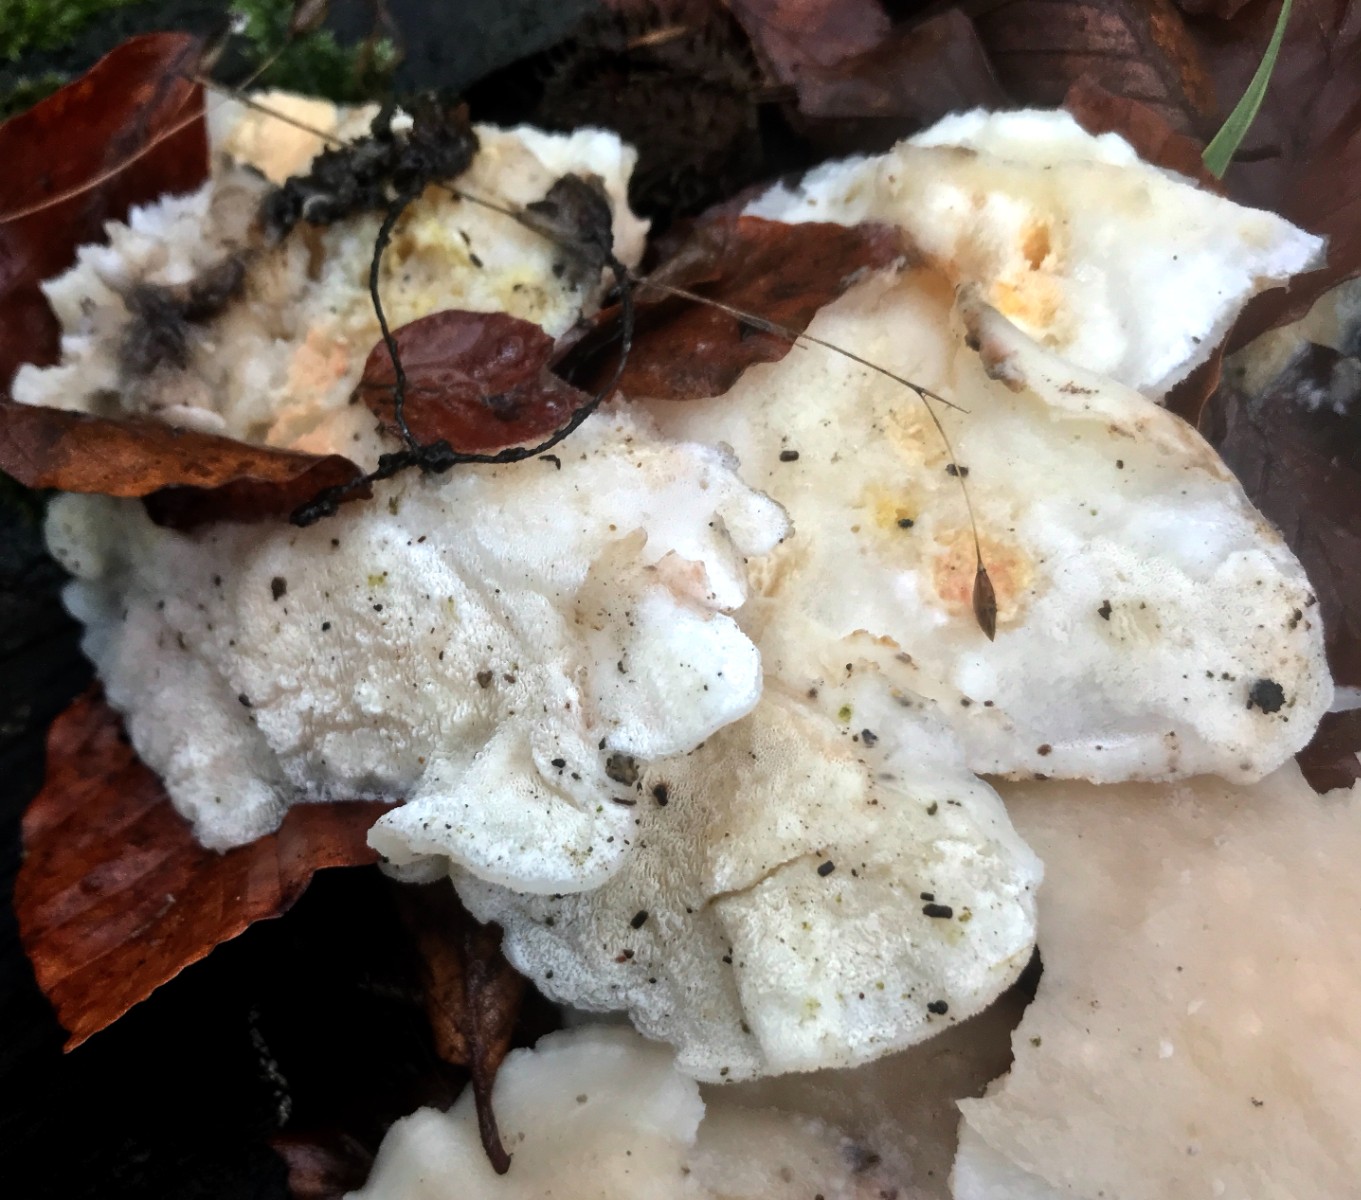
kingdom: Fungi
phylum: Basidiomycota
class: Agaricomycetes
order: Polyporales
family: Incrustoporiaceae
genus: Tyromyces
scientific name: Tyromyces lacteus
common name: mælkehvid kødporesvamp
